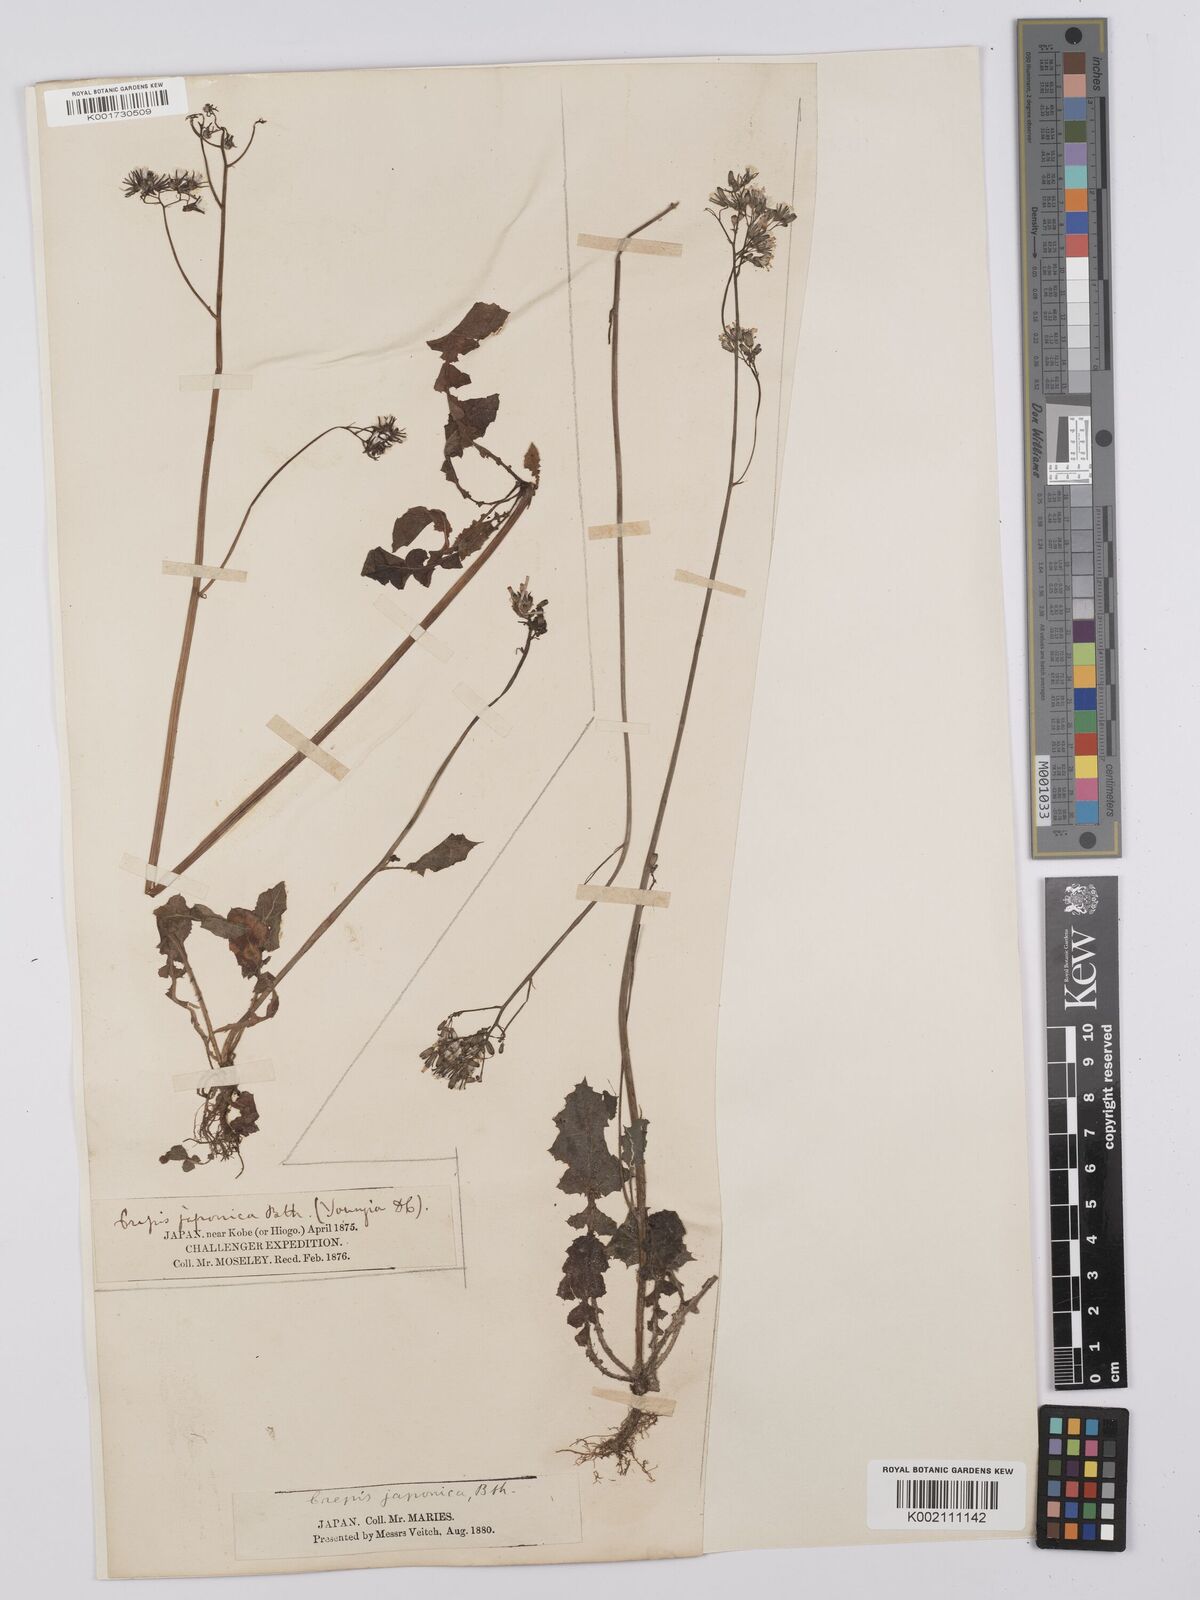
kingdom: Plantae
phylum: Tracheophyta
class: Magnoliopsida
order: Asterales
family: Asteraceae
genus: Youngia
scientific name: Youngia japonica
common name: Oriental false hawksbeard
